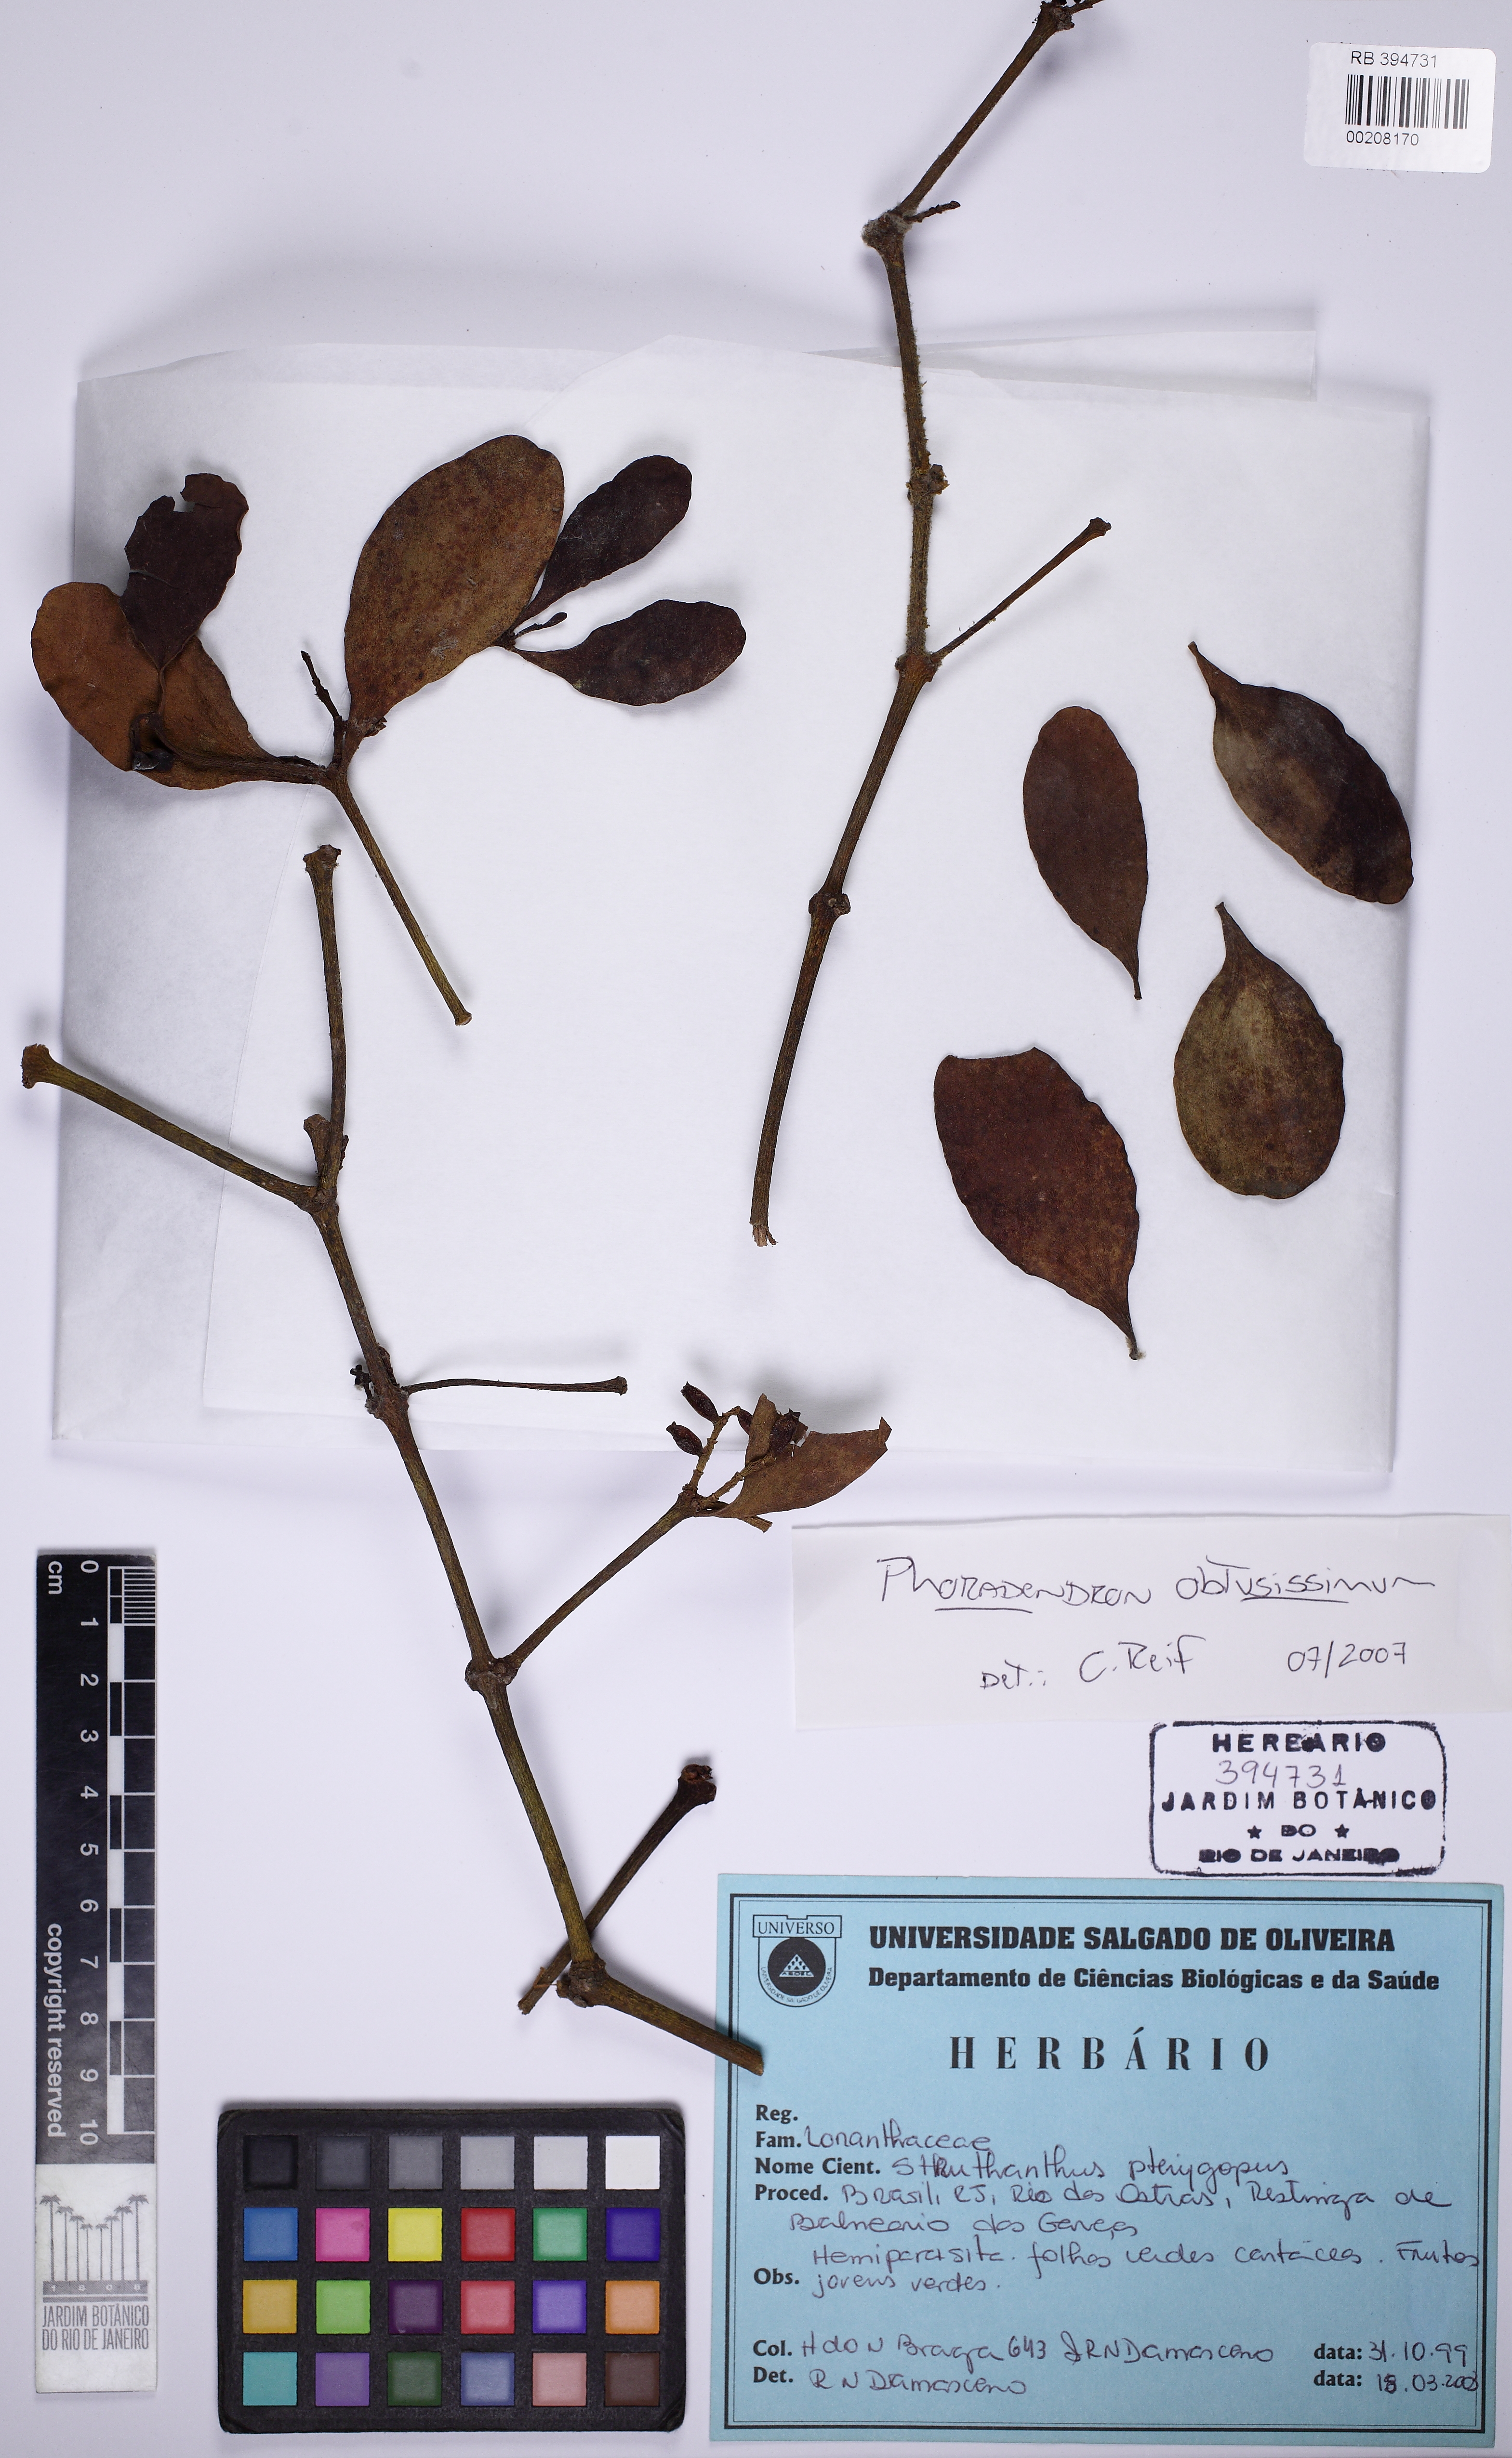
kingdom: Plantae
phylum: Tracheophyta
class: Magnoliopsida
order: Santalales
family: Viscaceae
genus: Phoradendron
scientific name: Phoradendron obtusissimum
